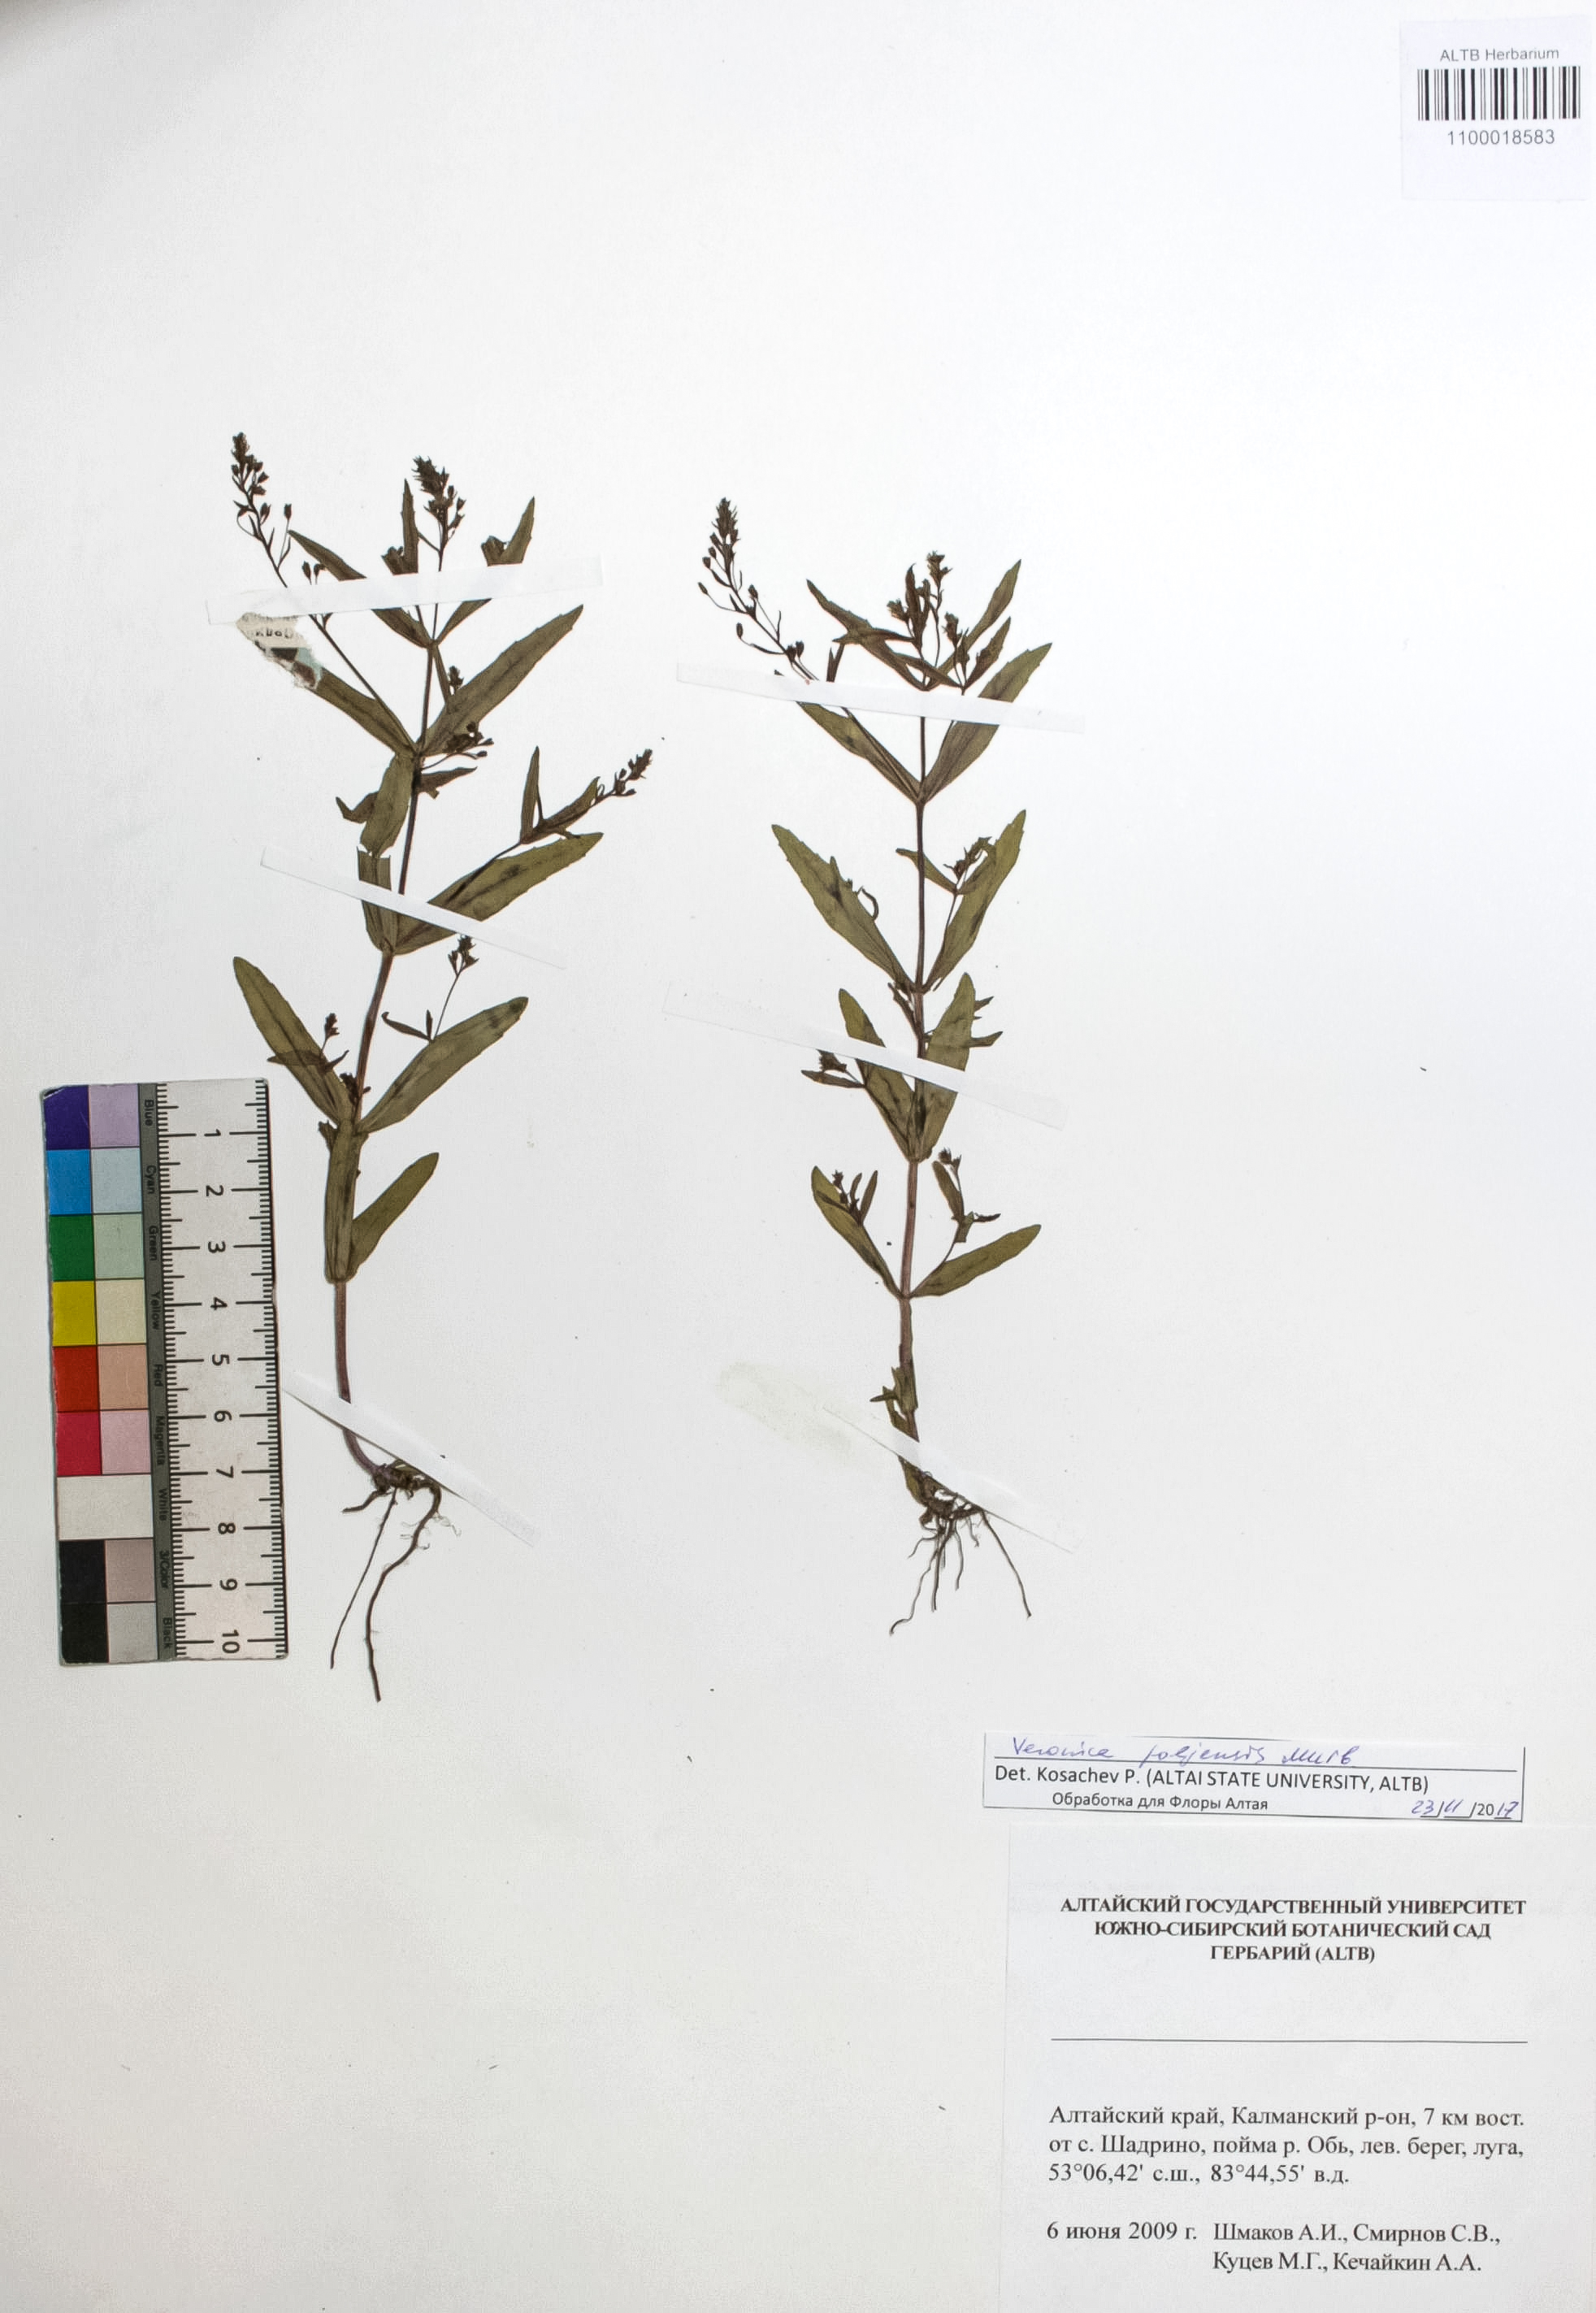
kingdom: Plantae
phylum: Tracheophyta
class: Magnoliopsida
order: Lamiales
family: Plantaginaceae
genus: Veronica
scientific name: Veronica poljensis
